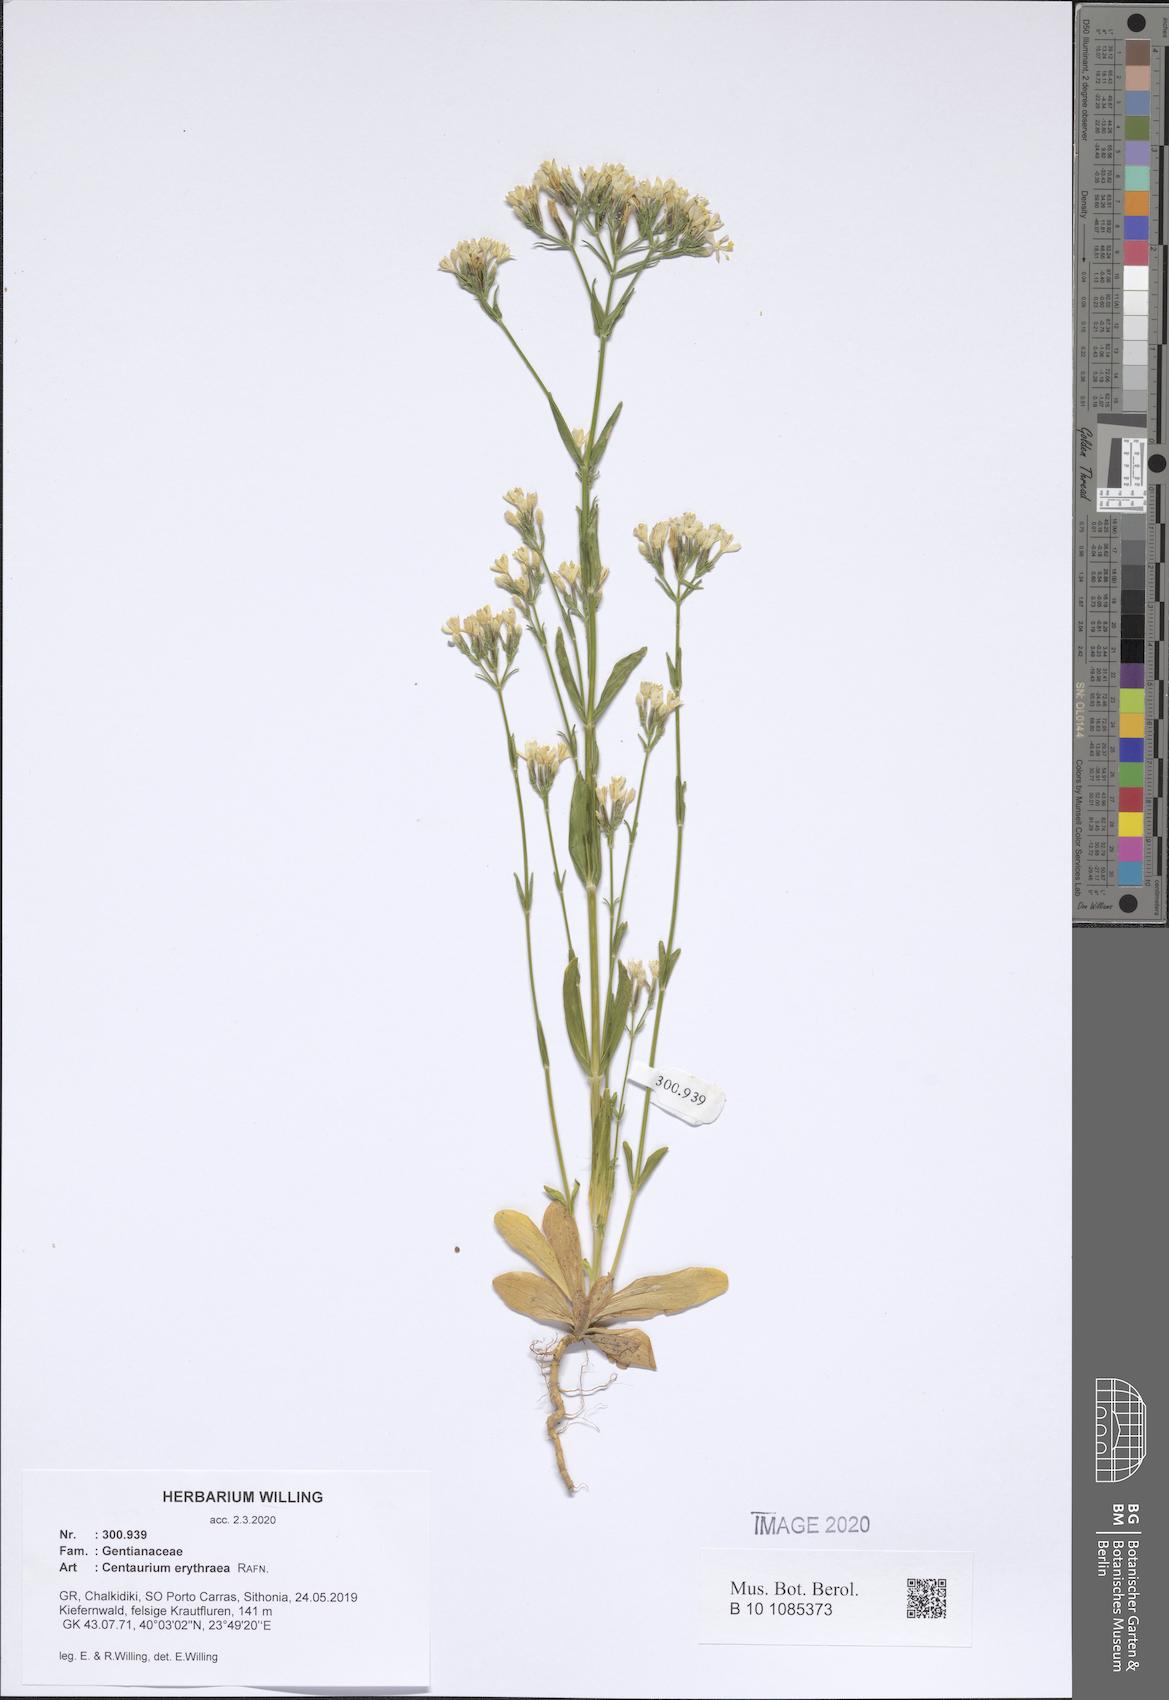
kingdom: Plantae
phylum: Tracheophyta
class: Magnoliopsida
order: Gentianales
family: Gentianaceae
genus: Centaurium
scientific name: Centaurium erythraea
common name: Common centaury
